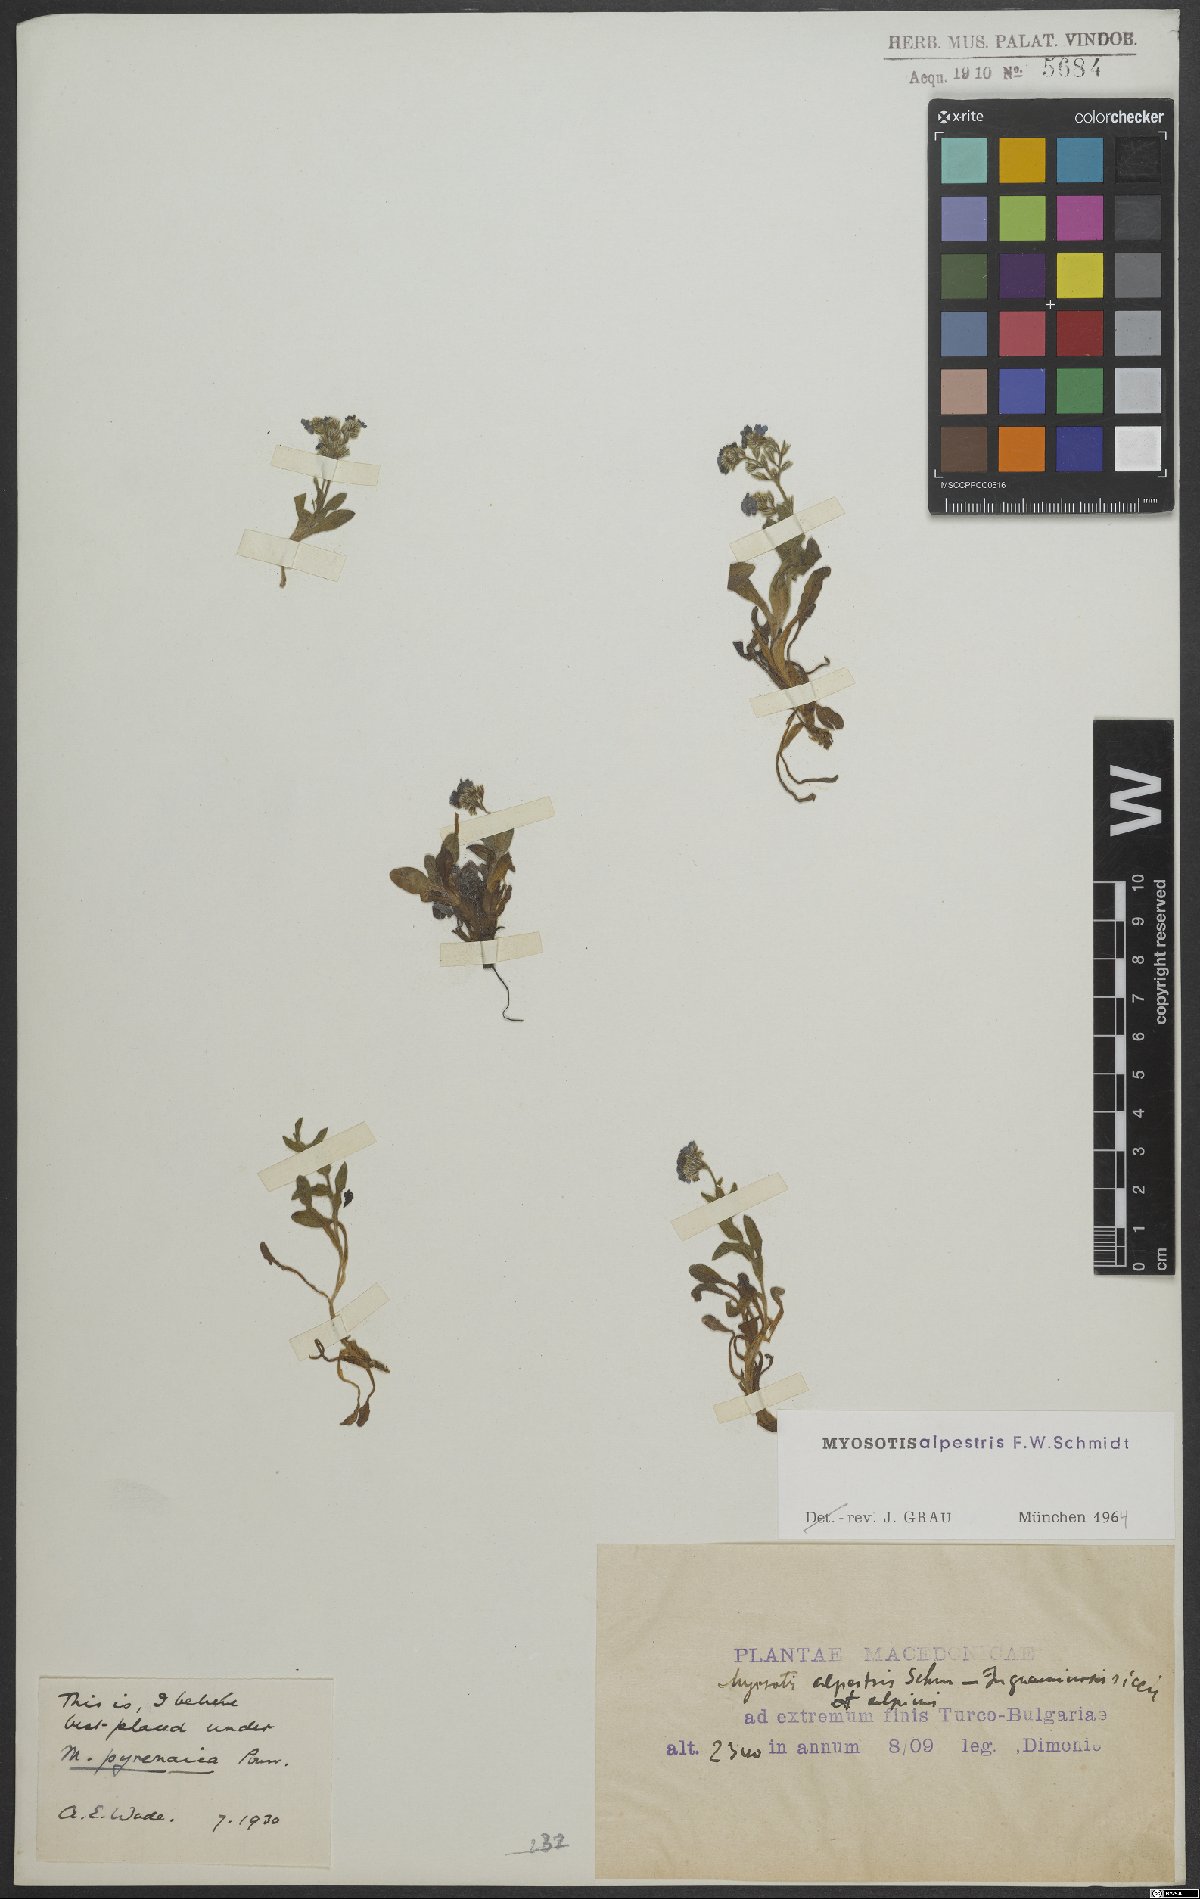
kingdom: Plantae
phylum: Tracheophyta
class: Magnoliopsida
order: Boraginales
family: Boraginaceae
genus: Myosotis
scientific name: Myosotis alpestris
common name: Alpine forget-me-not
